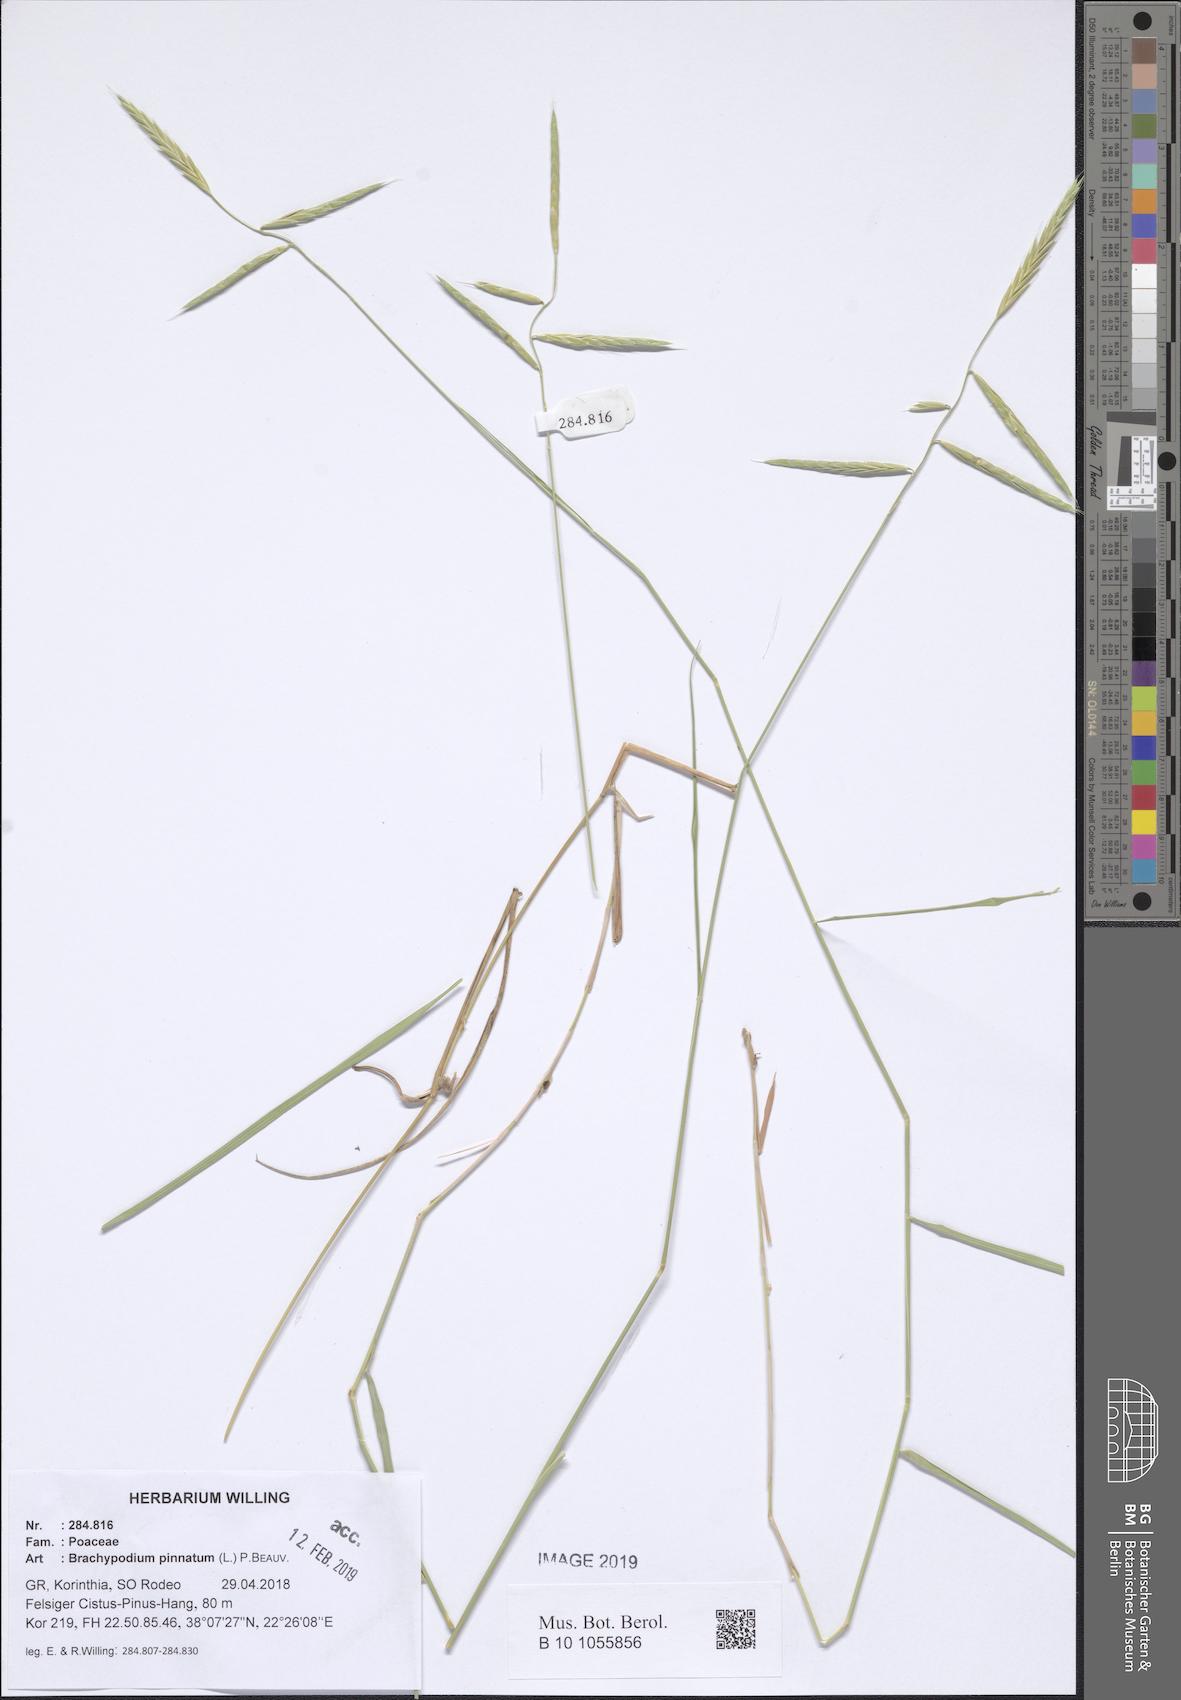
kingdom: Plantae
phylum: Tracheophyta
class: Liliopsida
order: Poales
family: Poaceae
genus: Brachypodium
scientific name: Brachypodium pinnatum
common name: Tor grass
